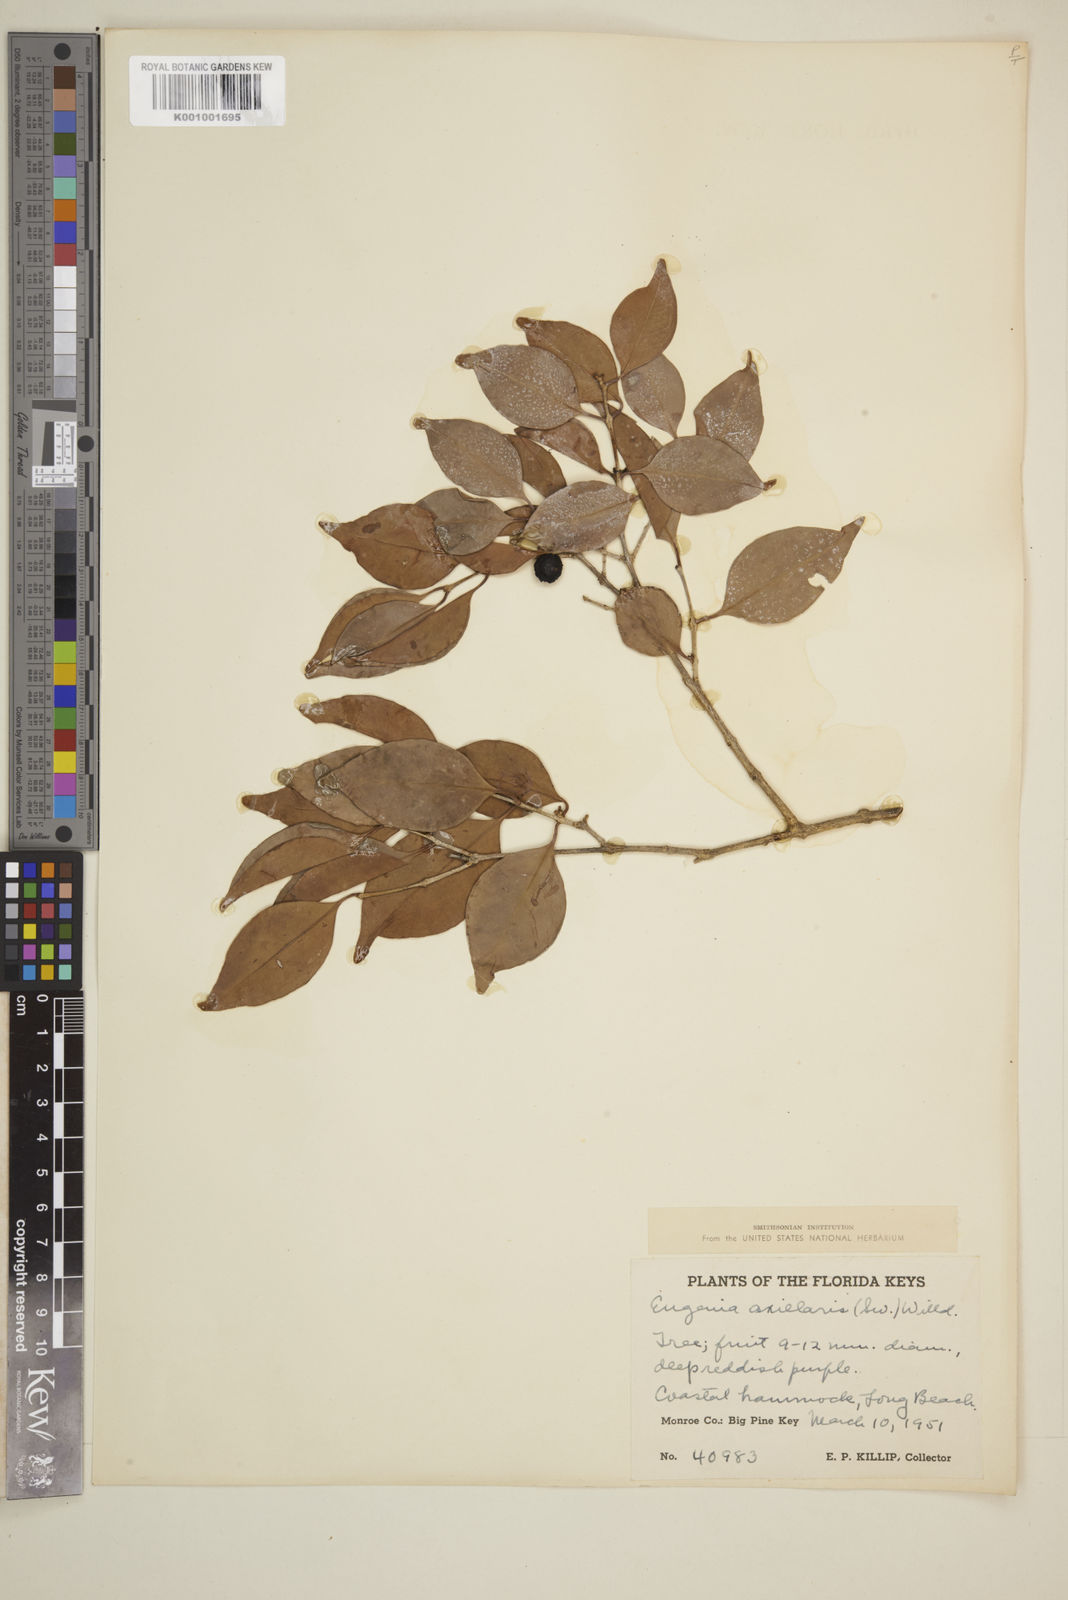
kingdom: Plantae
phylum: Tracheophyta
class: Magnoliopsida
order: Myrtales
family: Myrtaceae
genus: Eugenia
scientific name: Eugenia axillaris
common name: Choaky berry
